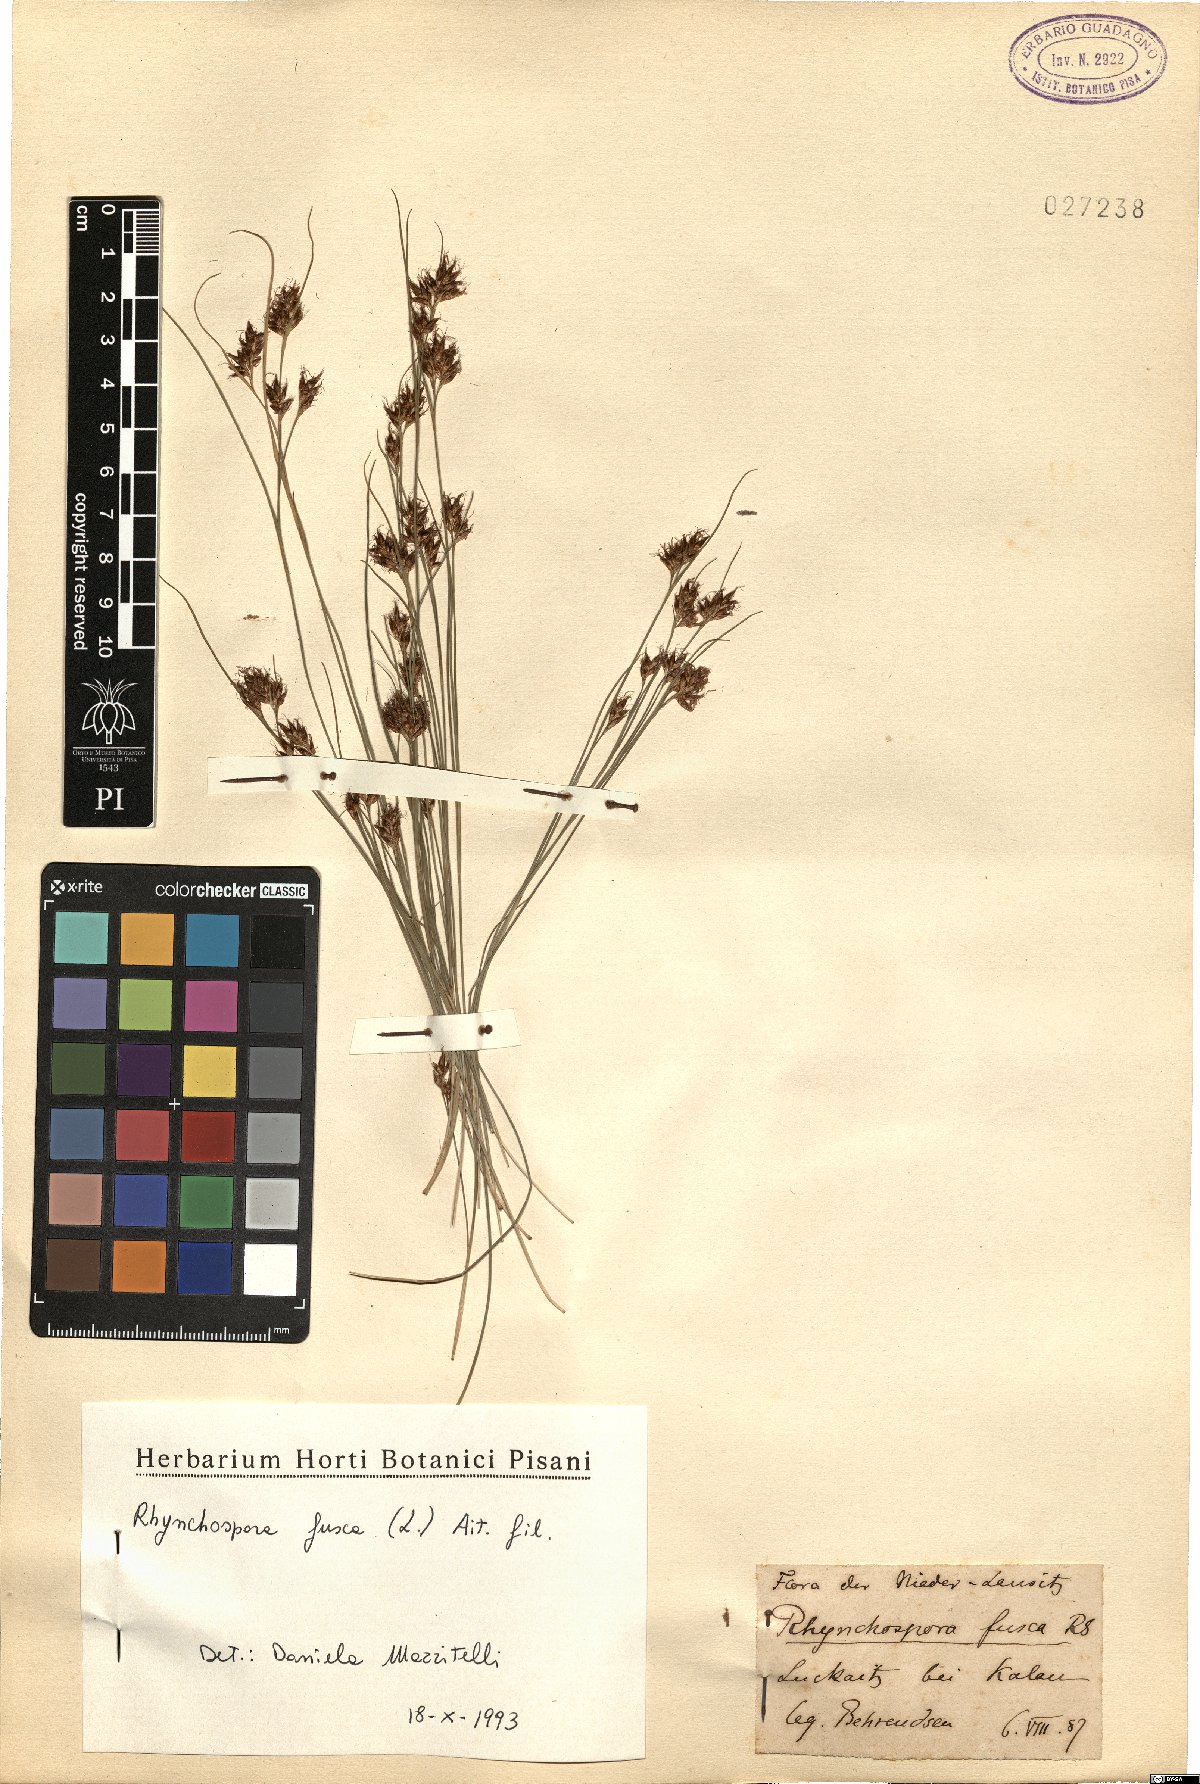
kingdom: Plantae
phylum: Tracheophyta
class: Liliopsida
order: Poales
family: Cyperaceae
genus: Rhynchospora
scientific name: Rhynchospora fusca
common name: Brown beak-sedge
